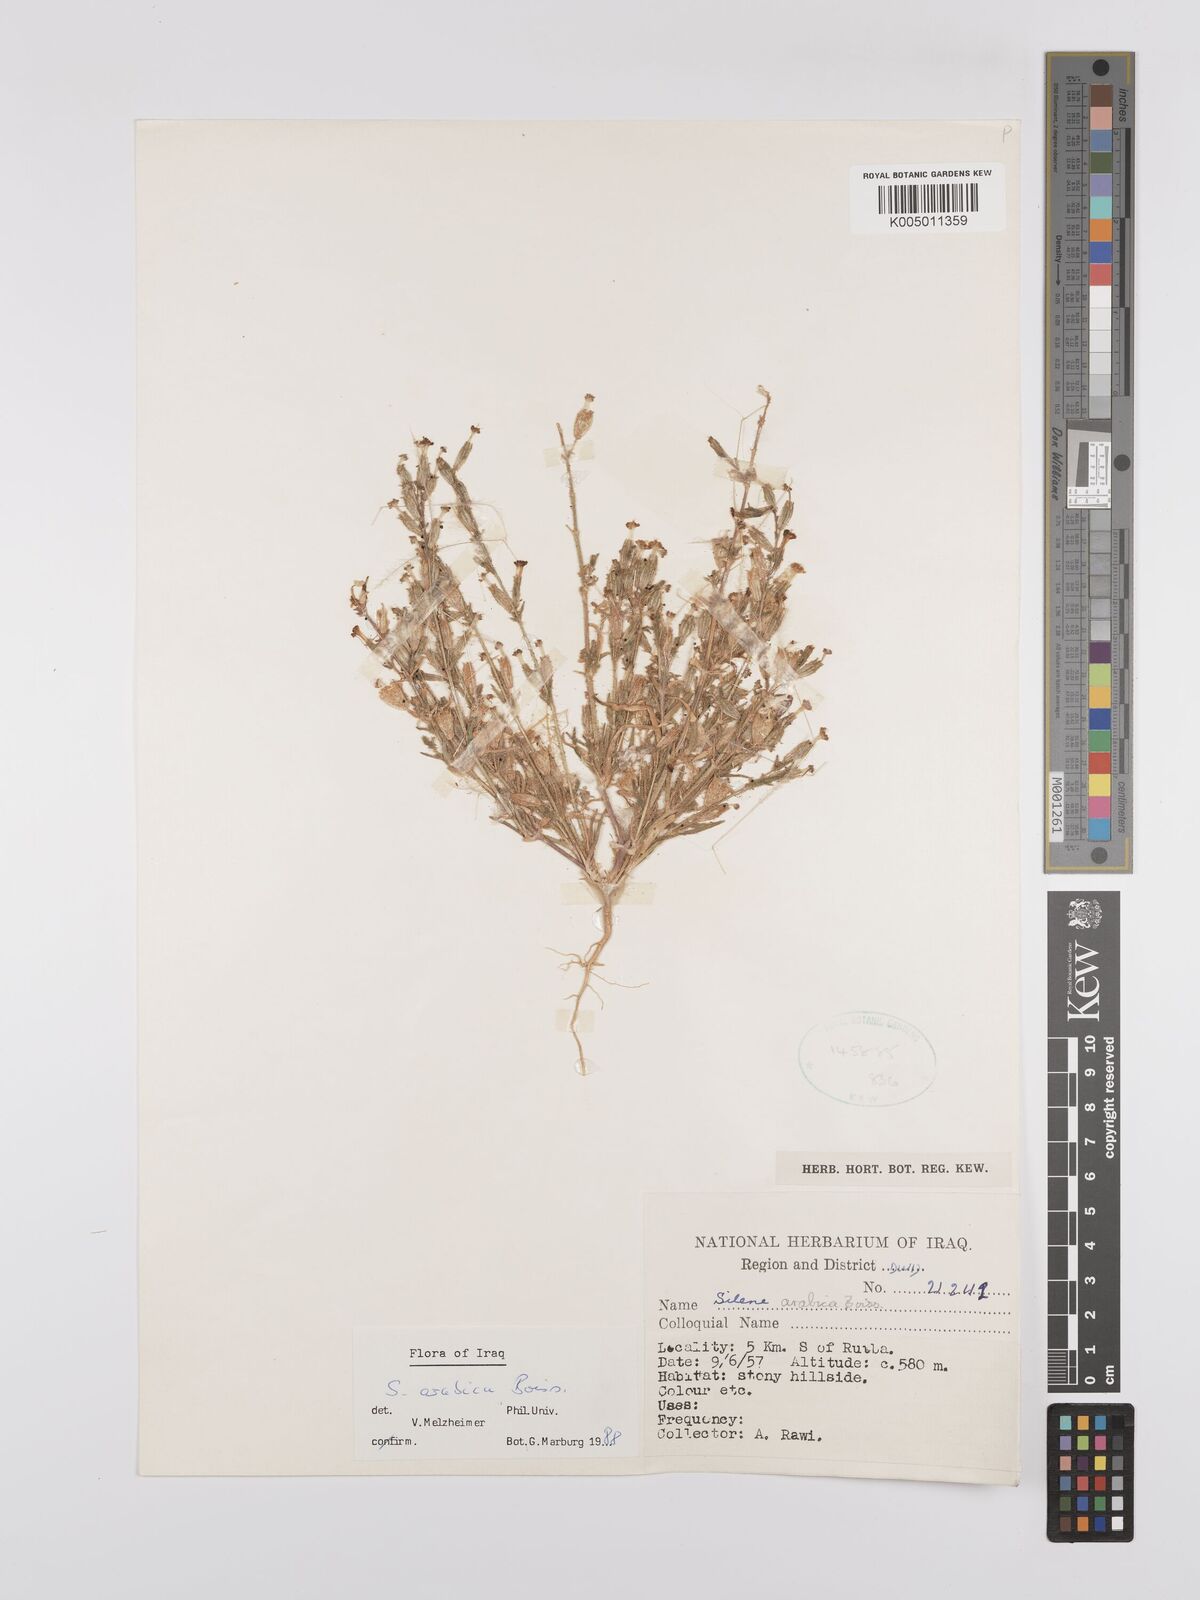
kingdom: Plantae
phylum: Tracheophyta
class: Magnoliopsida
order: Caryophyllales
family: Caryophyllaceae
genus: Silene
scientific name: Silene arabica
